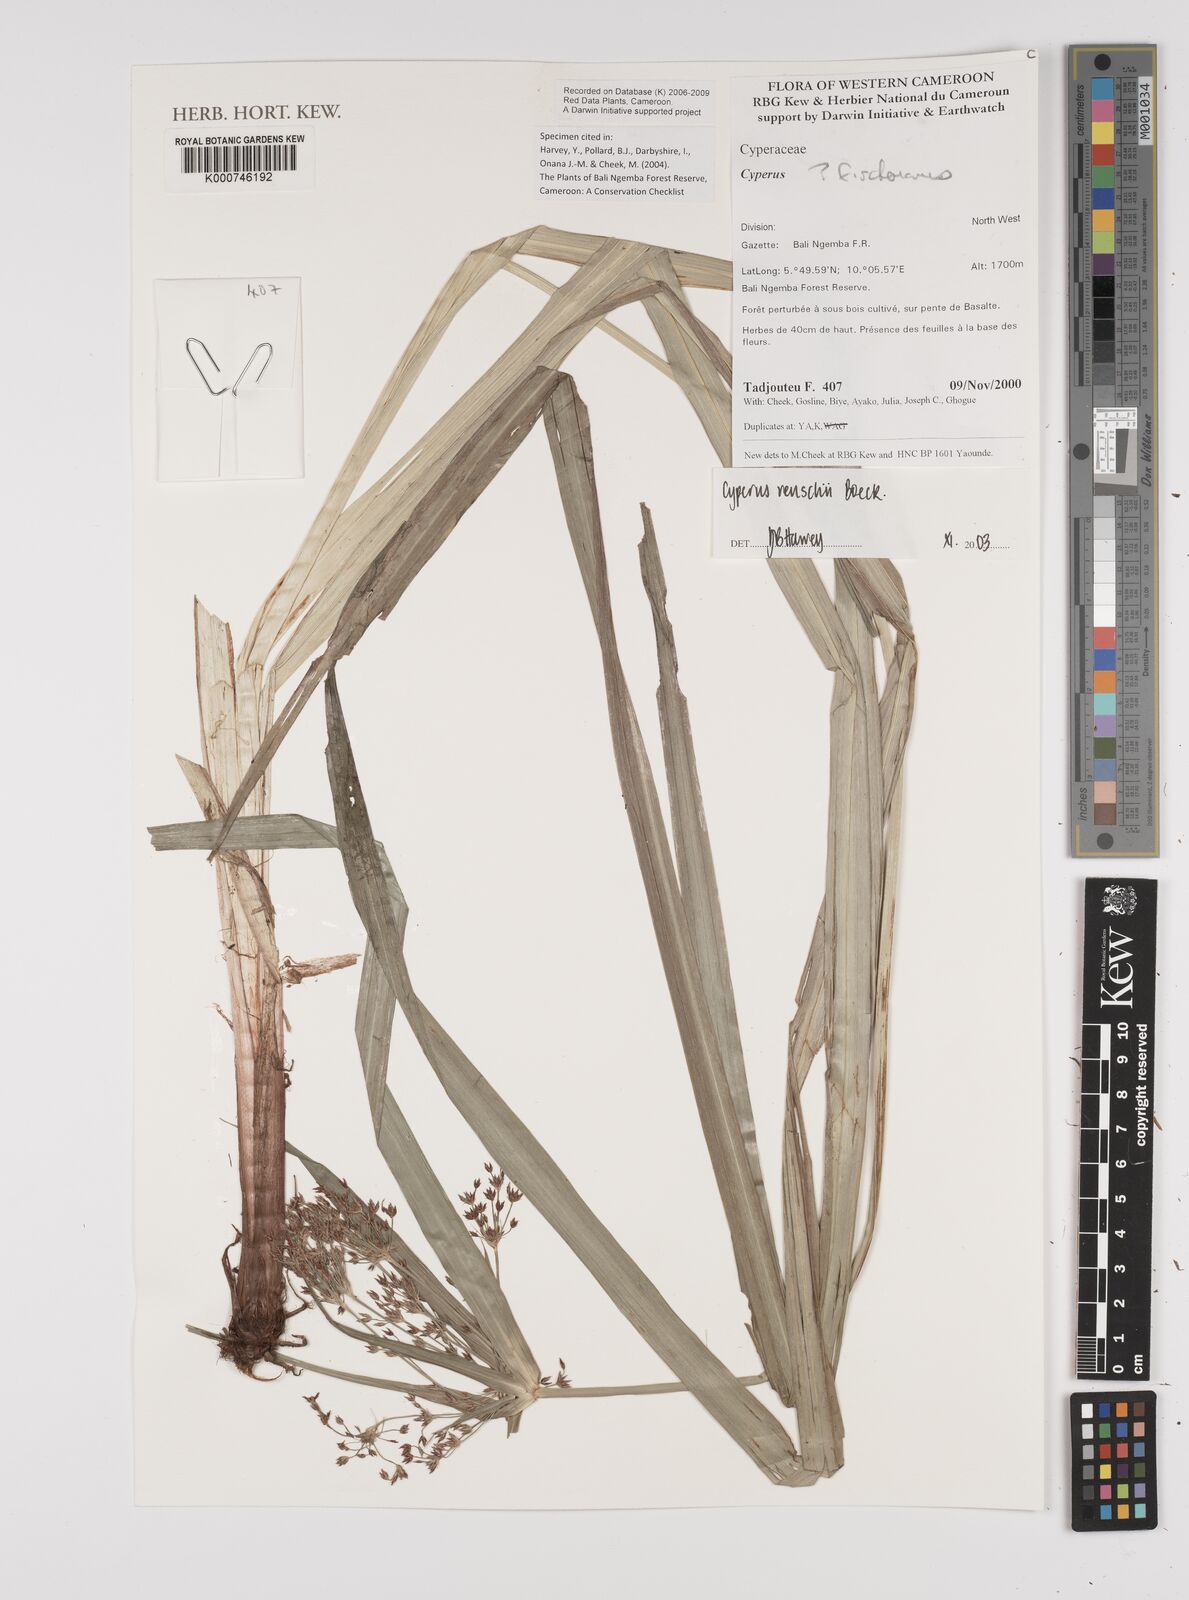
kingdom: Plantae
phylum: Tracheophyta
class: Liliopsida
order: Poales
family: Cyperaceae
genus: Cyperus
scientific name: Cyperus renschii
